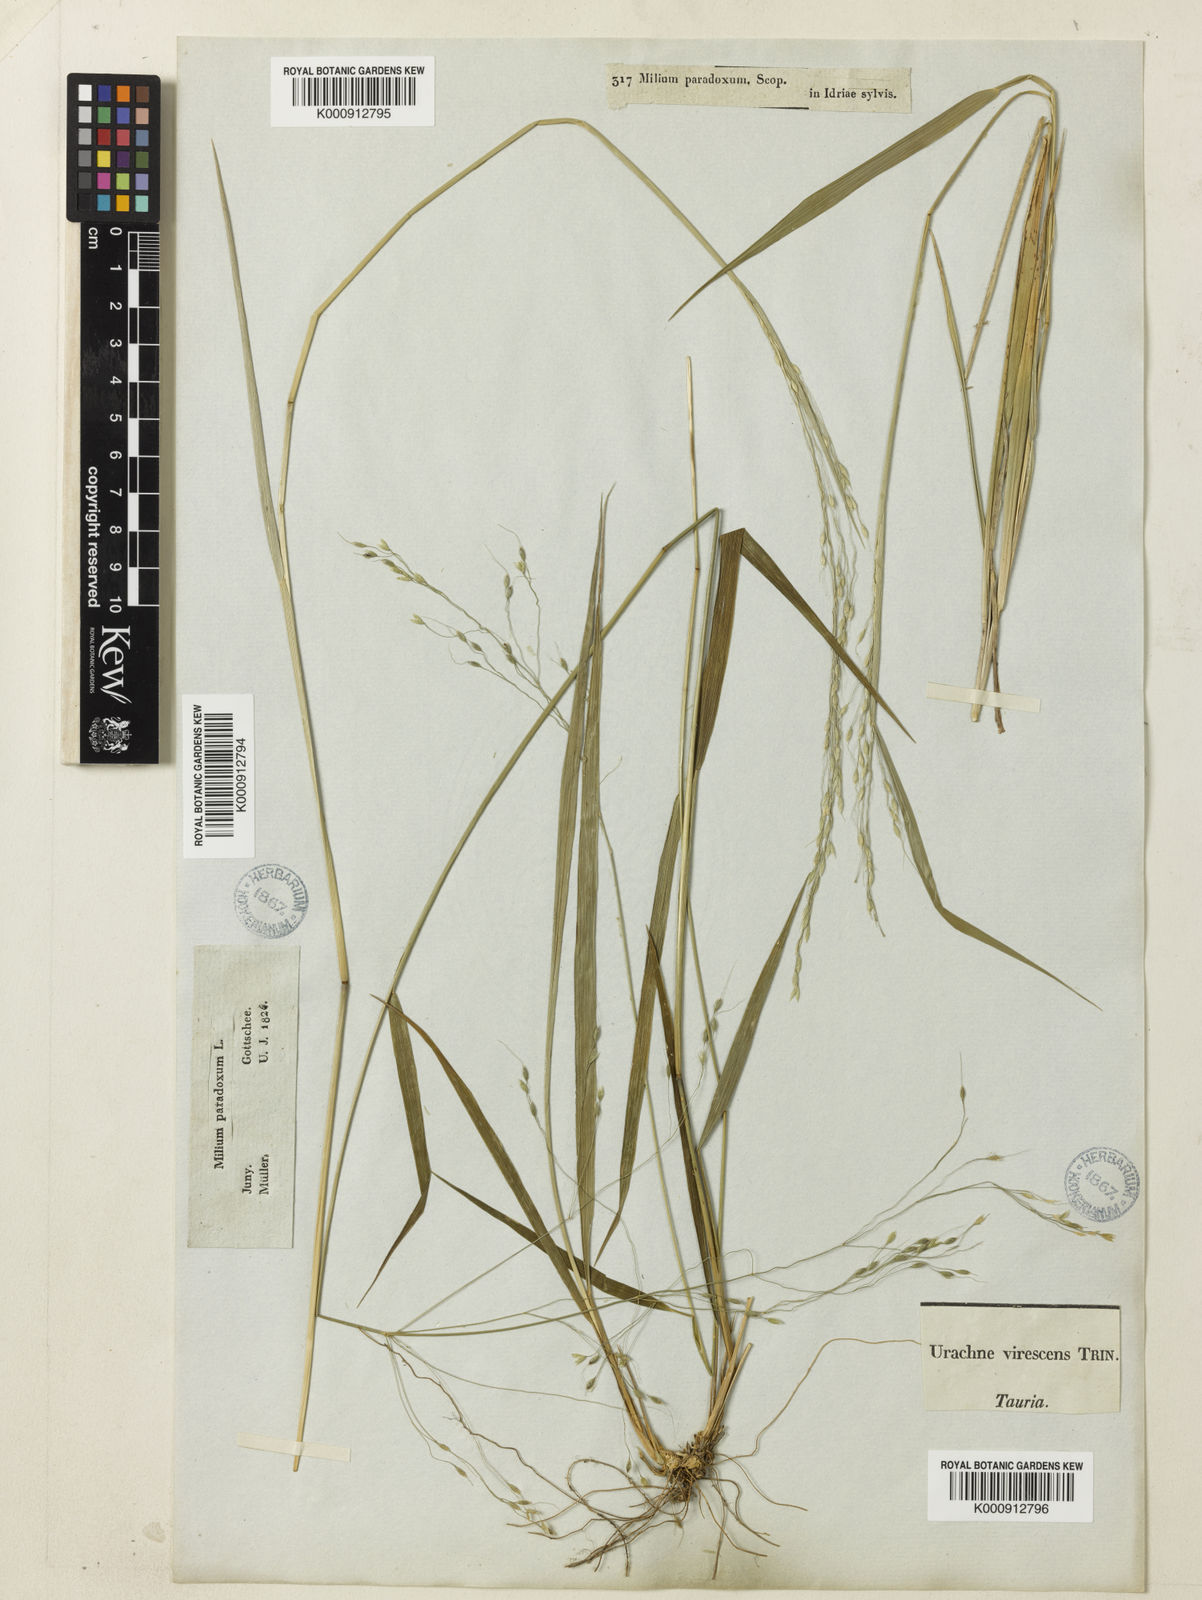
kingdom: Plantae
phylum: Tracheophyta
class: Liliopsida
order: Poales
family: Poaceae
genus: Achnatherum
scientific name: Achnatherum virescens
